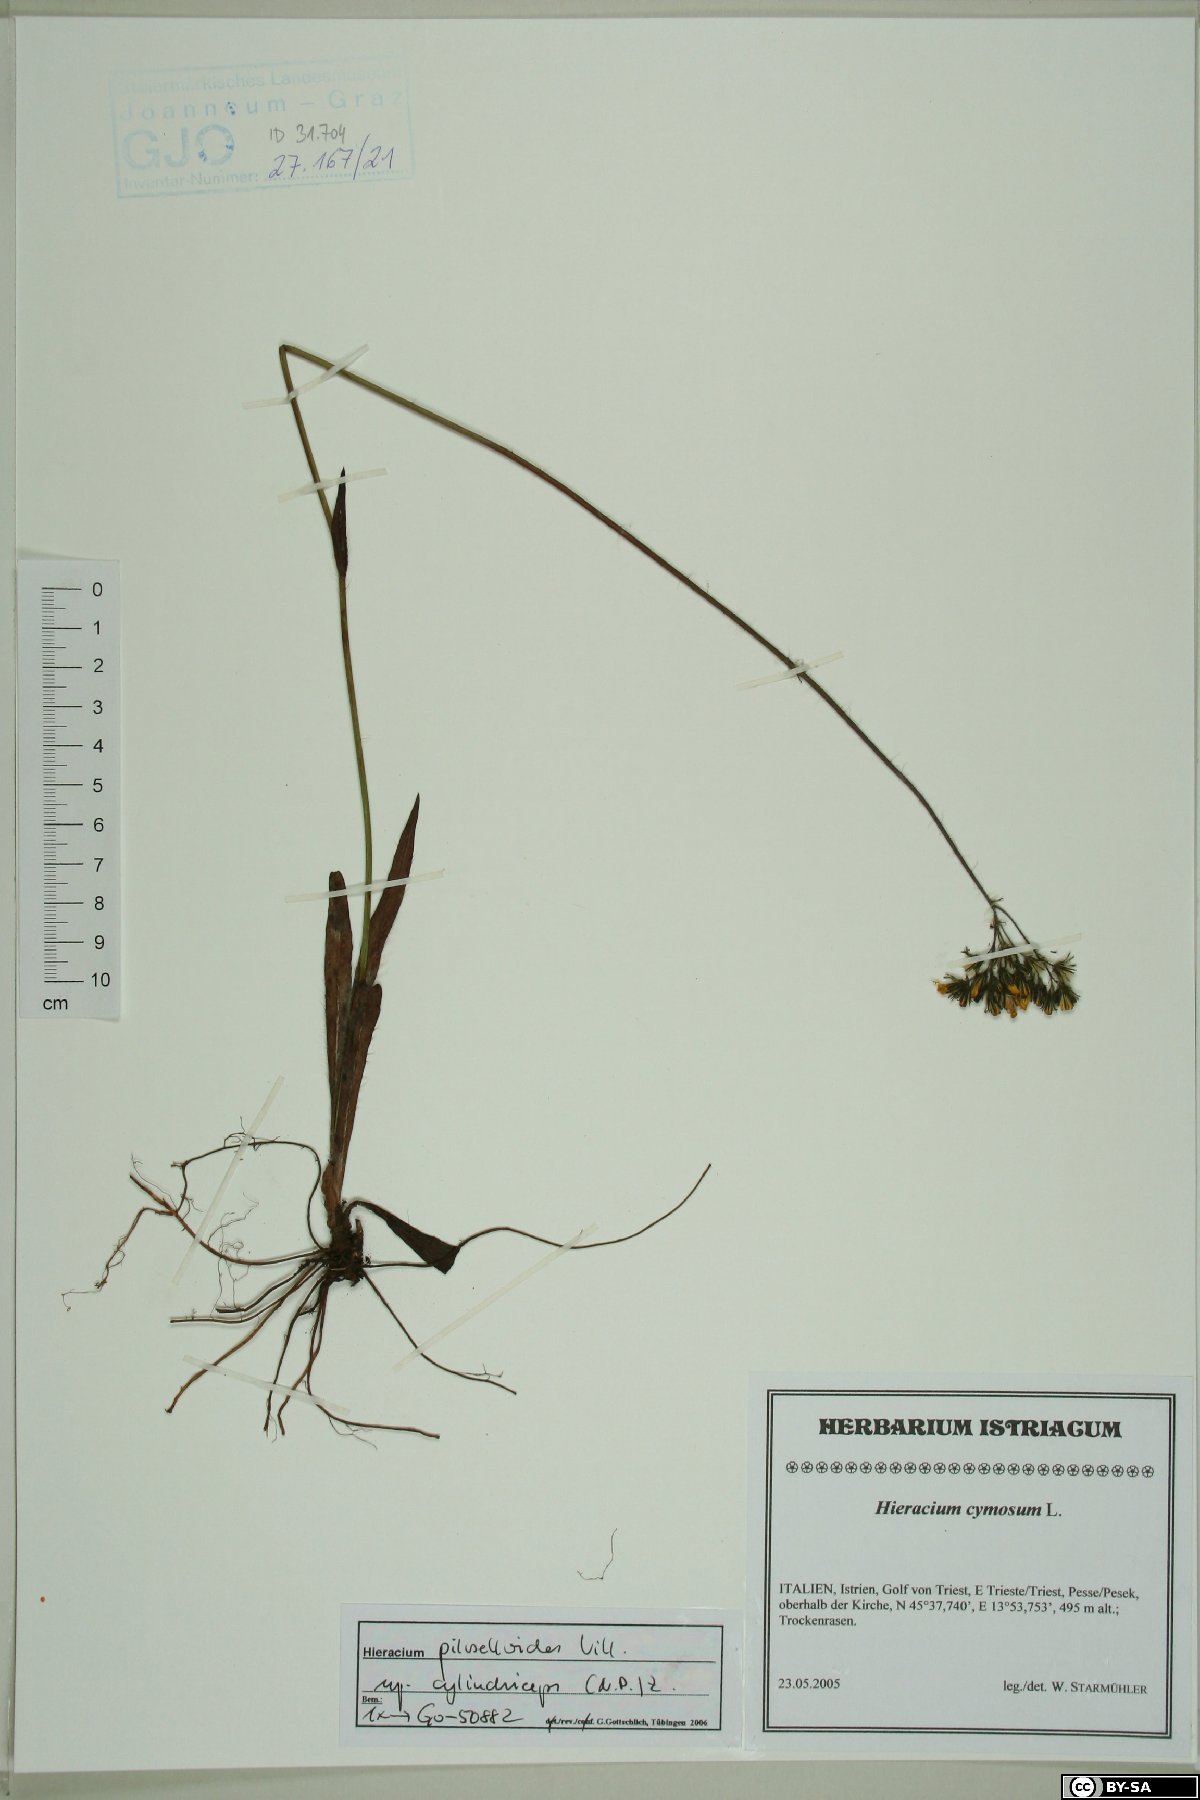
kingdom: Plantae
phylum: Tracheophyta
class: Magnoliopsida
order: Asterales
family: Asteraceae
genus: Pilosella
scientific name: Pilosella piloselloides
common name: Glaucous king-devil
